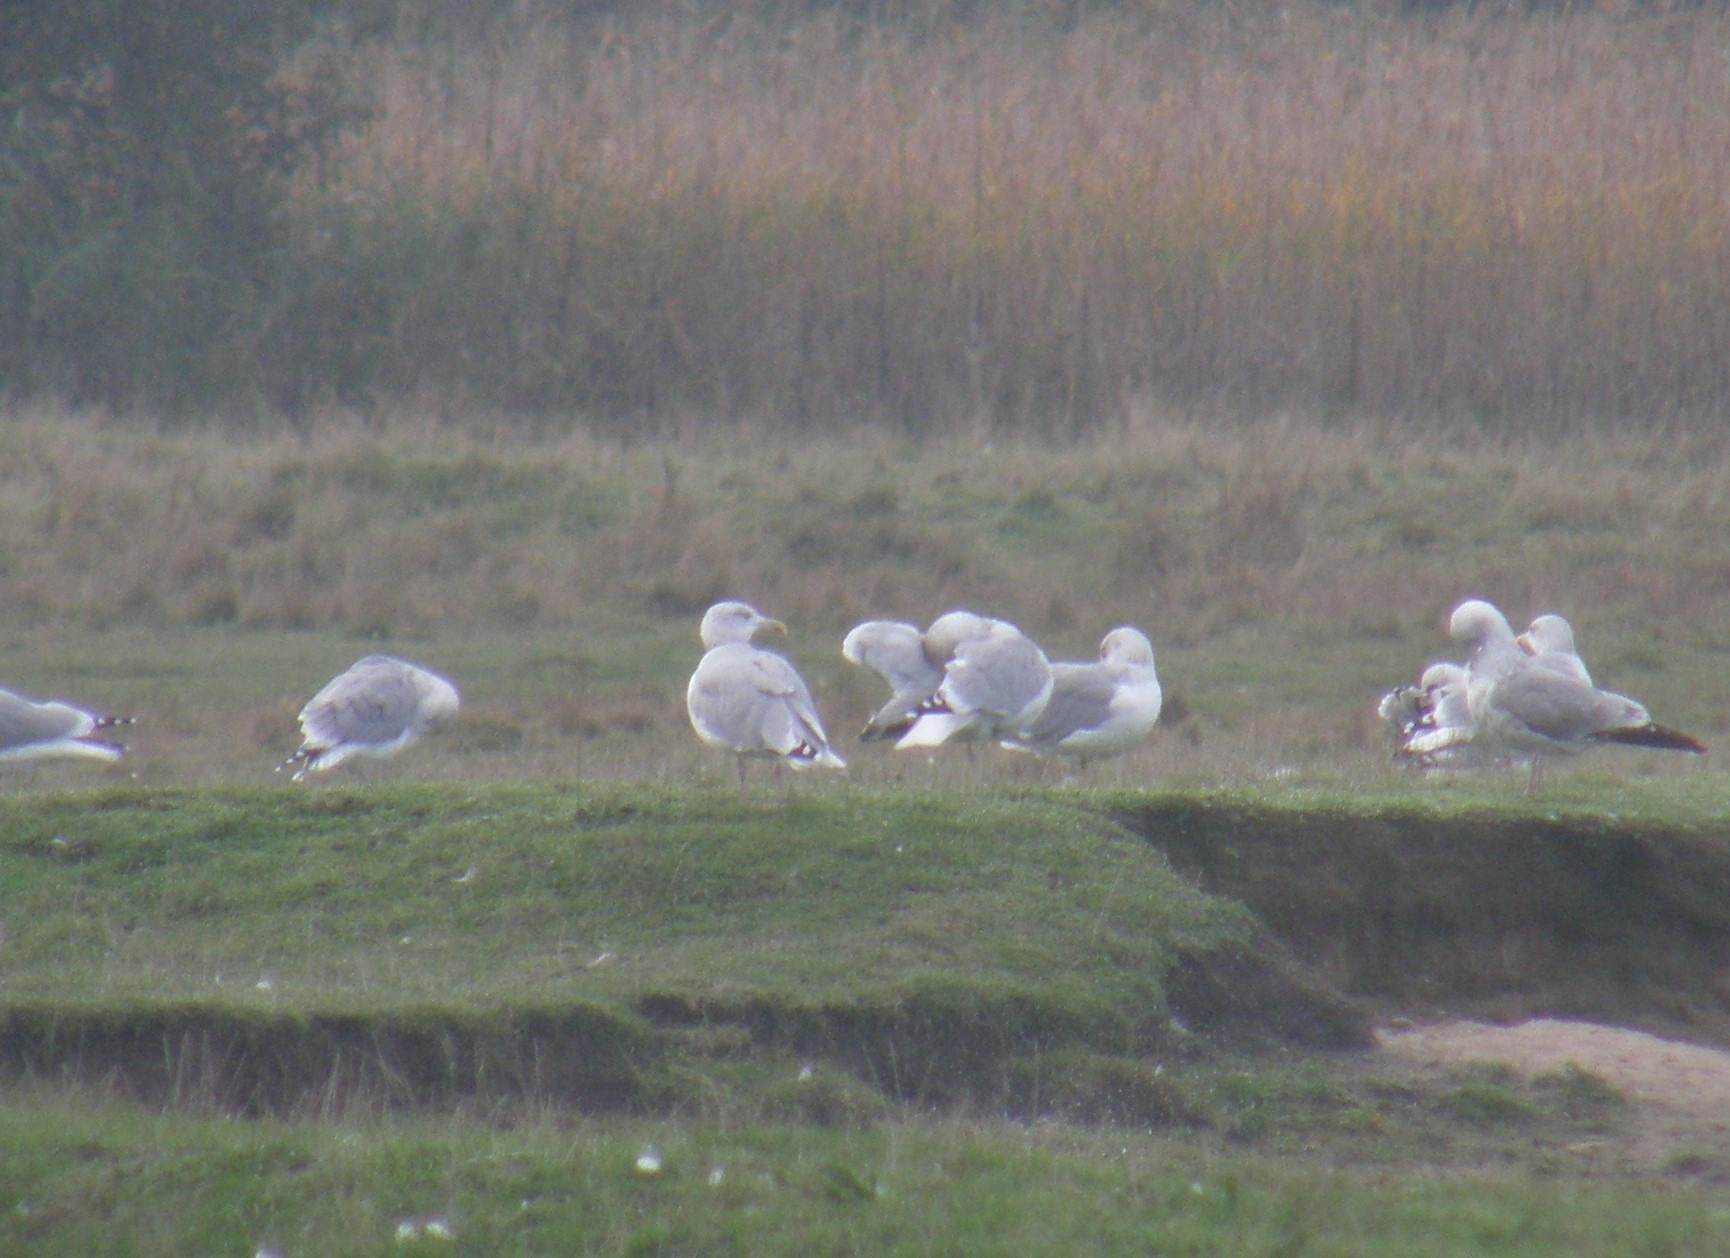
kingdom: Animalia
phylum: Chordata
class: Aves
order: Charadriiformes
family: Laridae
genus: Larus
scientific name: Larus argentatus
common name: Sølvmåge
